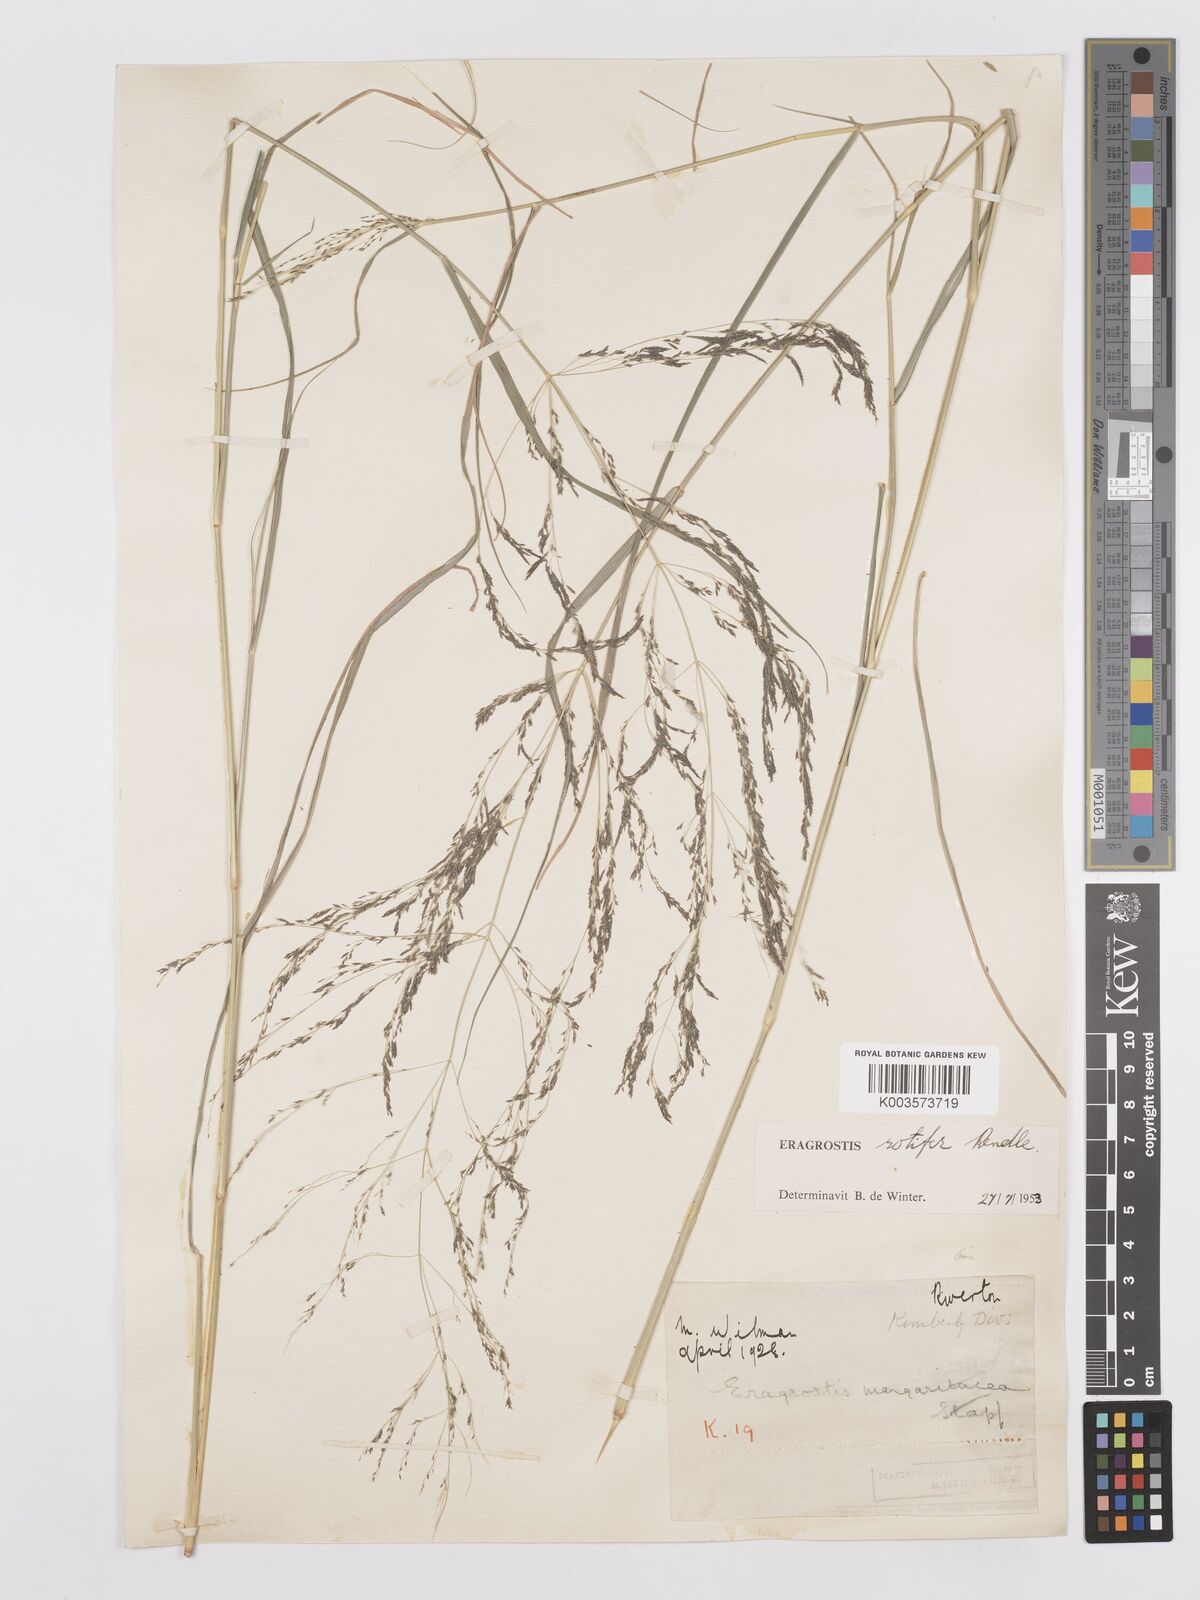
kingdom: Plantae
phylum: Tracheophyta
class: Liliopsida
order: Poales
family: Poaceae
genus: Eragrostis
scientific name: Eragrostis rotifer
